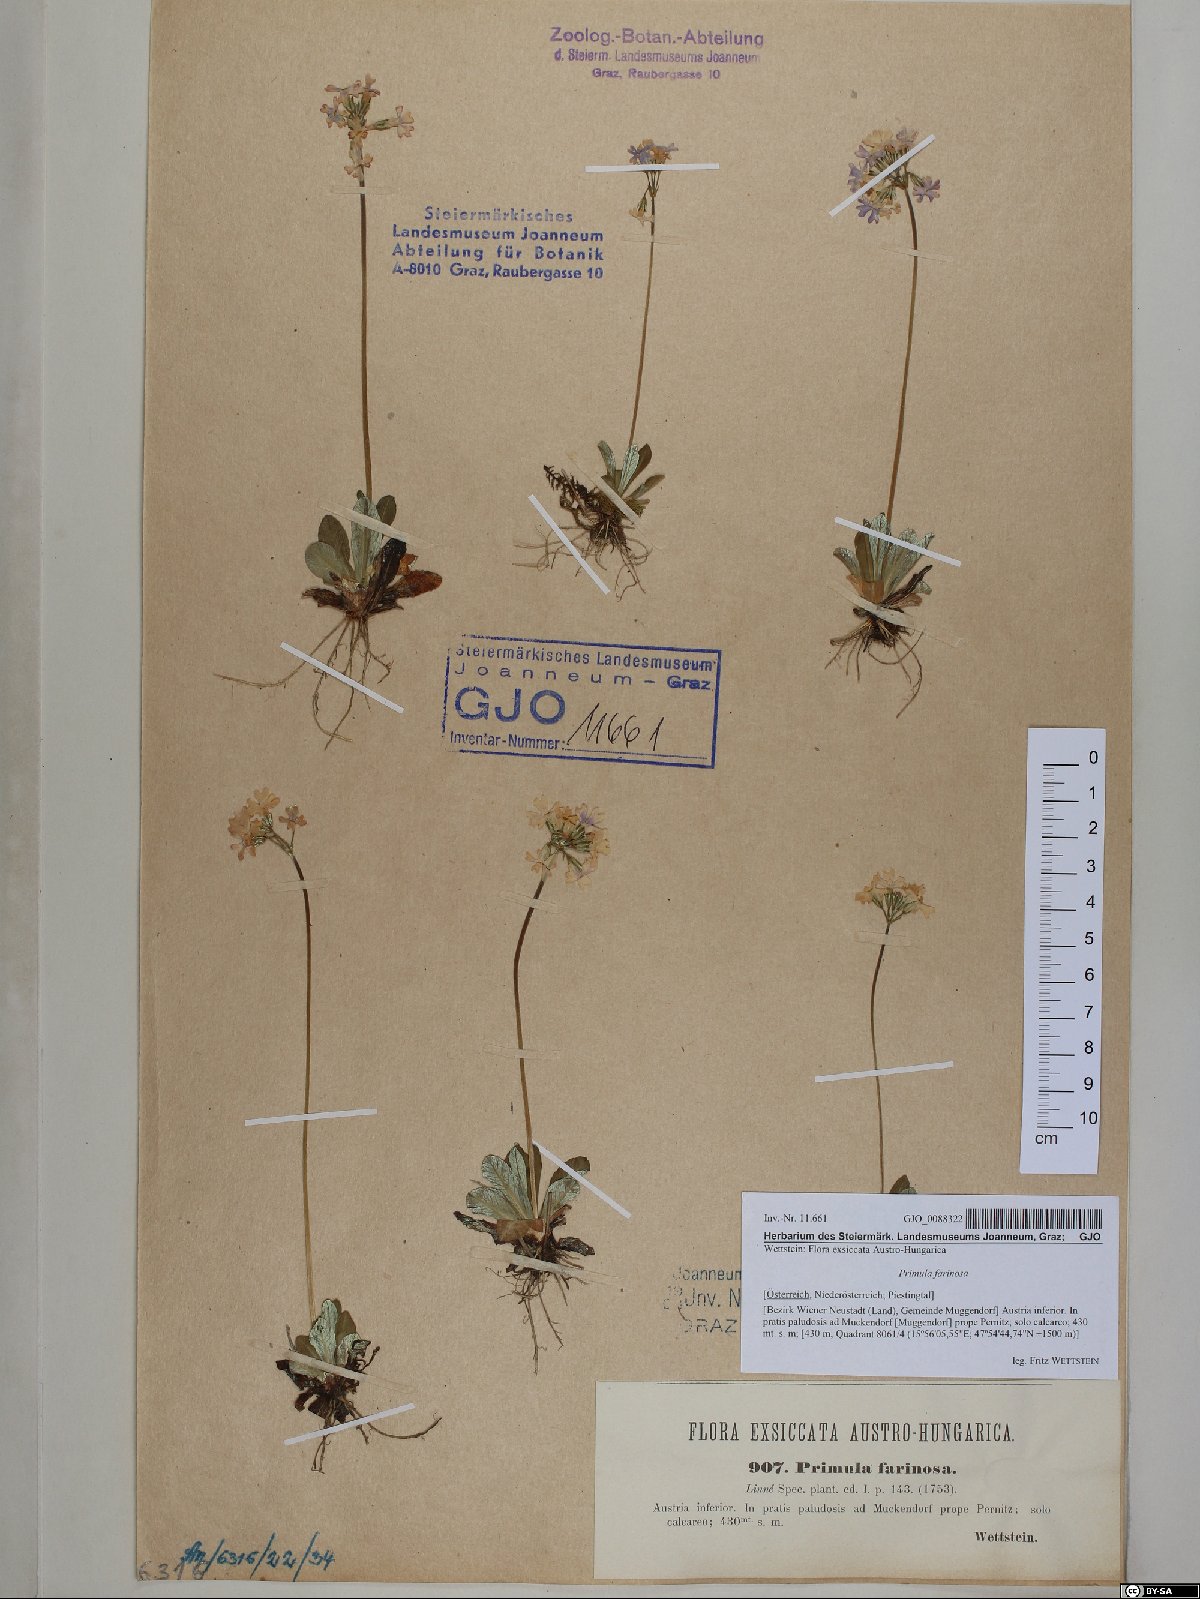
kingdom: Plantae
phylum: Tracheophyta
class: Magnoliopsida
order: Ericales
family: Primulaceae
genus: Primula
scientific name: Primula farinosa
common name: Bird's-eye primrose
